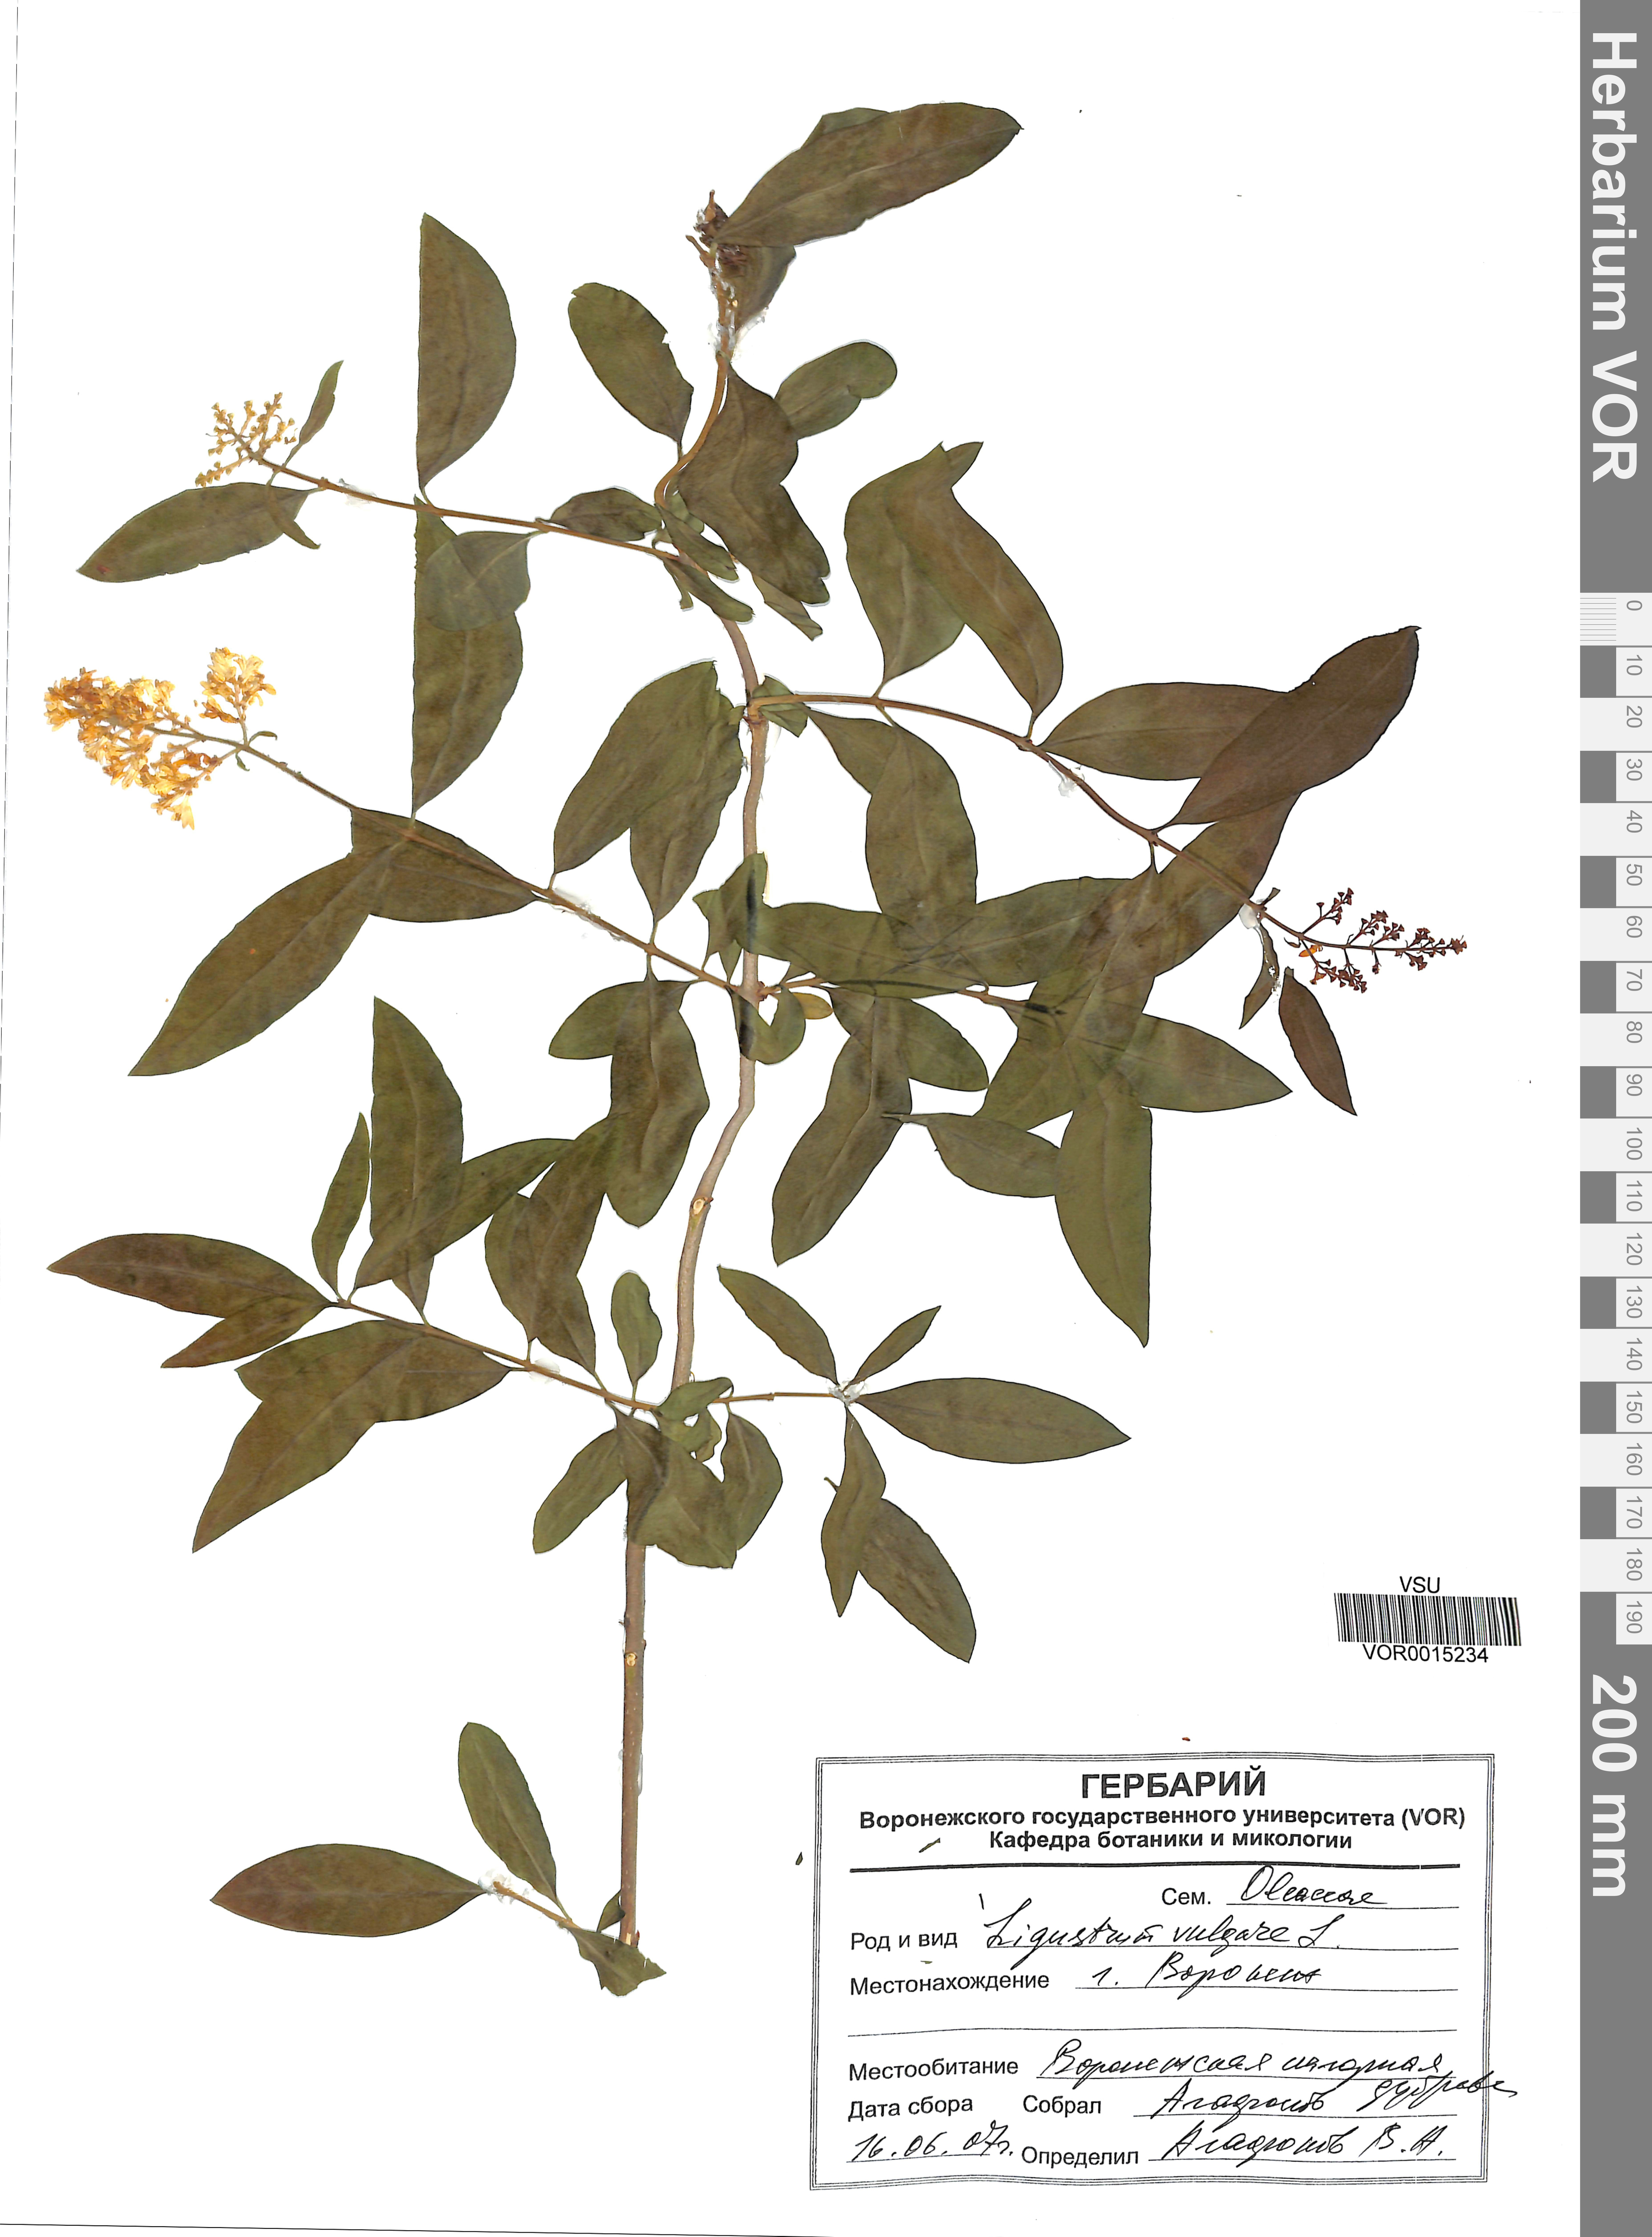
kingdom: Plantae
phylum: Tracheophyta
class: Magnoliopsida
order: Lamiales
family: Oleaceae
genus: Ligustrum
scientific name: Ligustrum vulgare
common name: Wild privet
